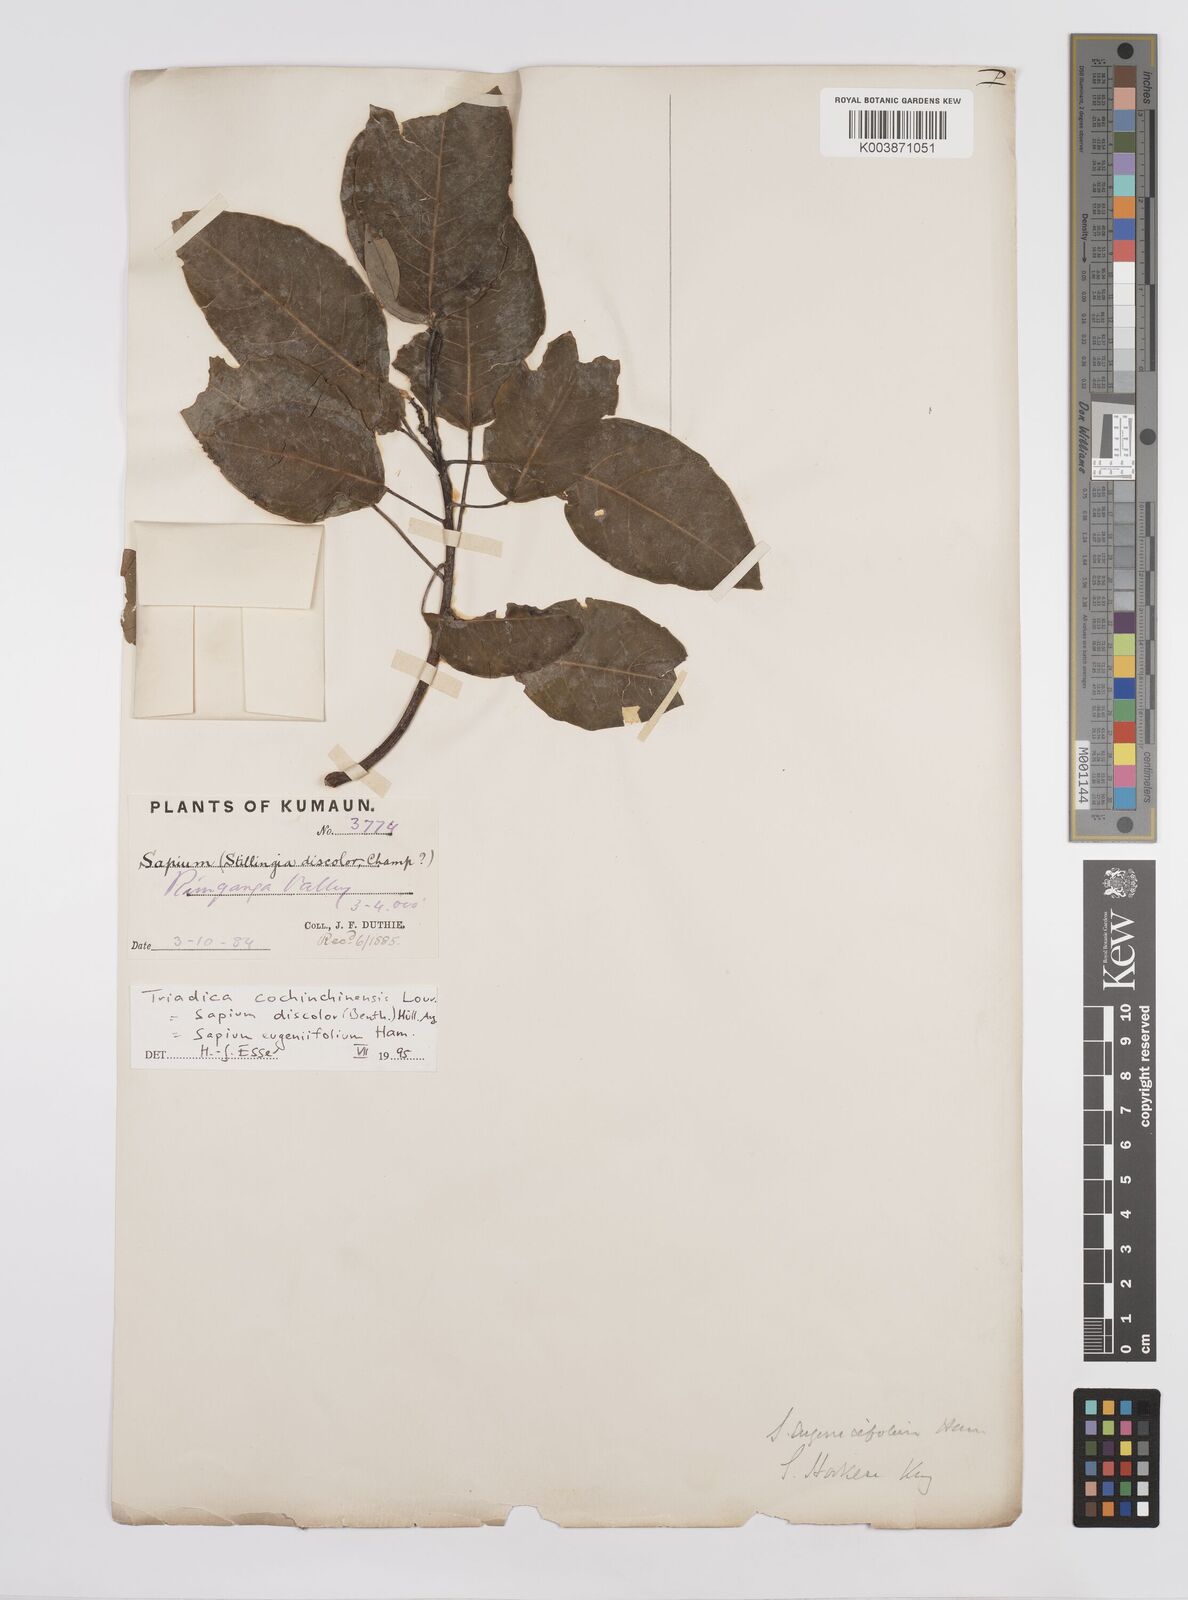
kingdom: Plantae
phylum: Tracheophyta
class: Magnoliopsida
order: Malpighiales
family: Euphorbiaceae
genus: Triadica
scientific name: Triadica cochinchinensis
